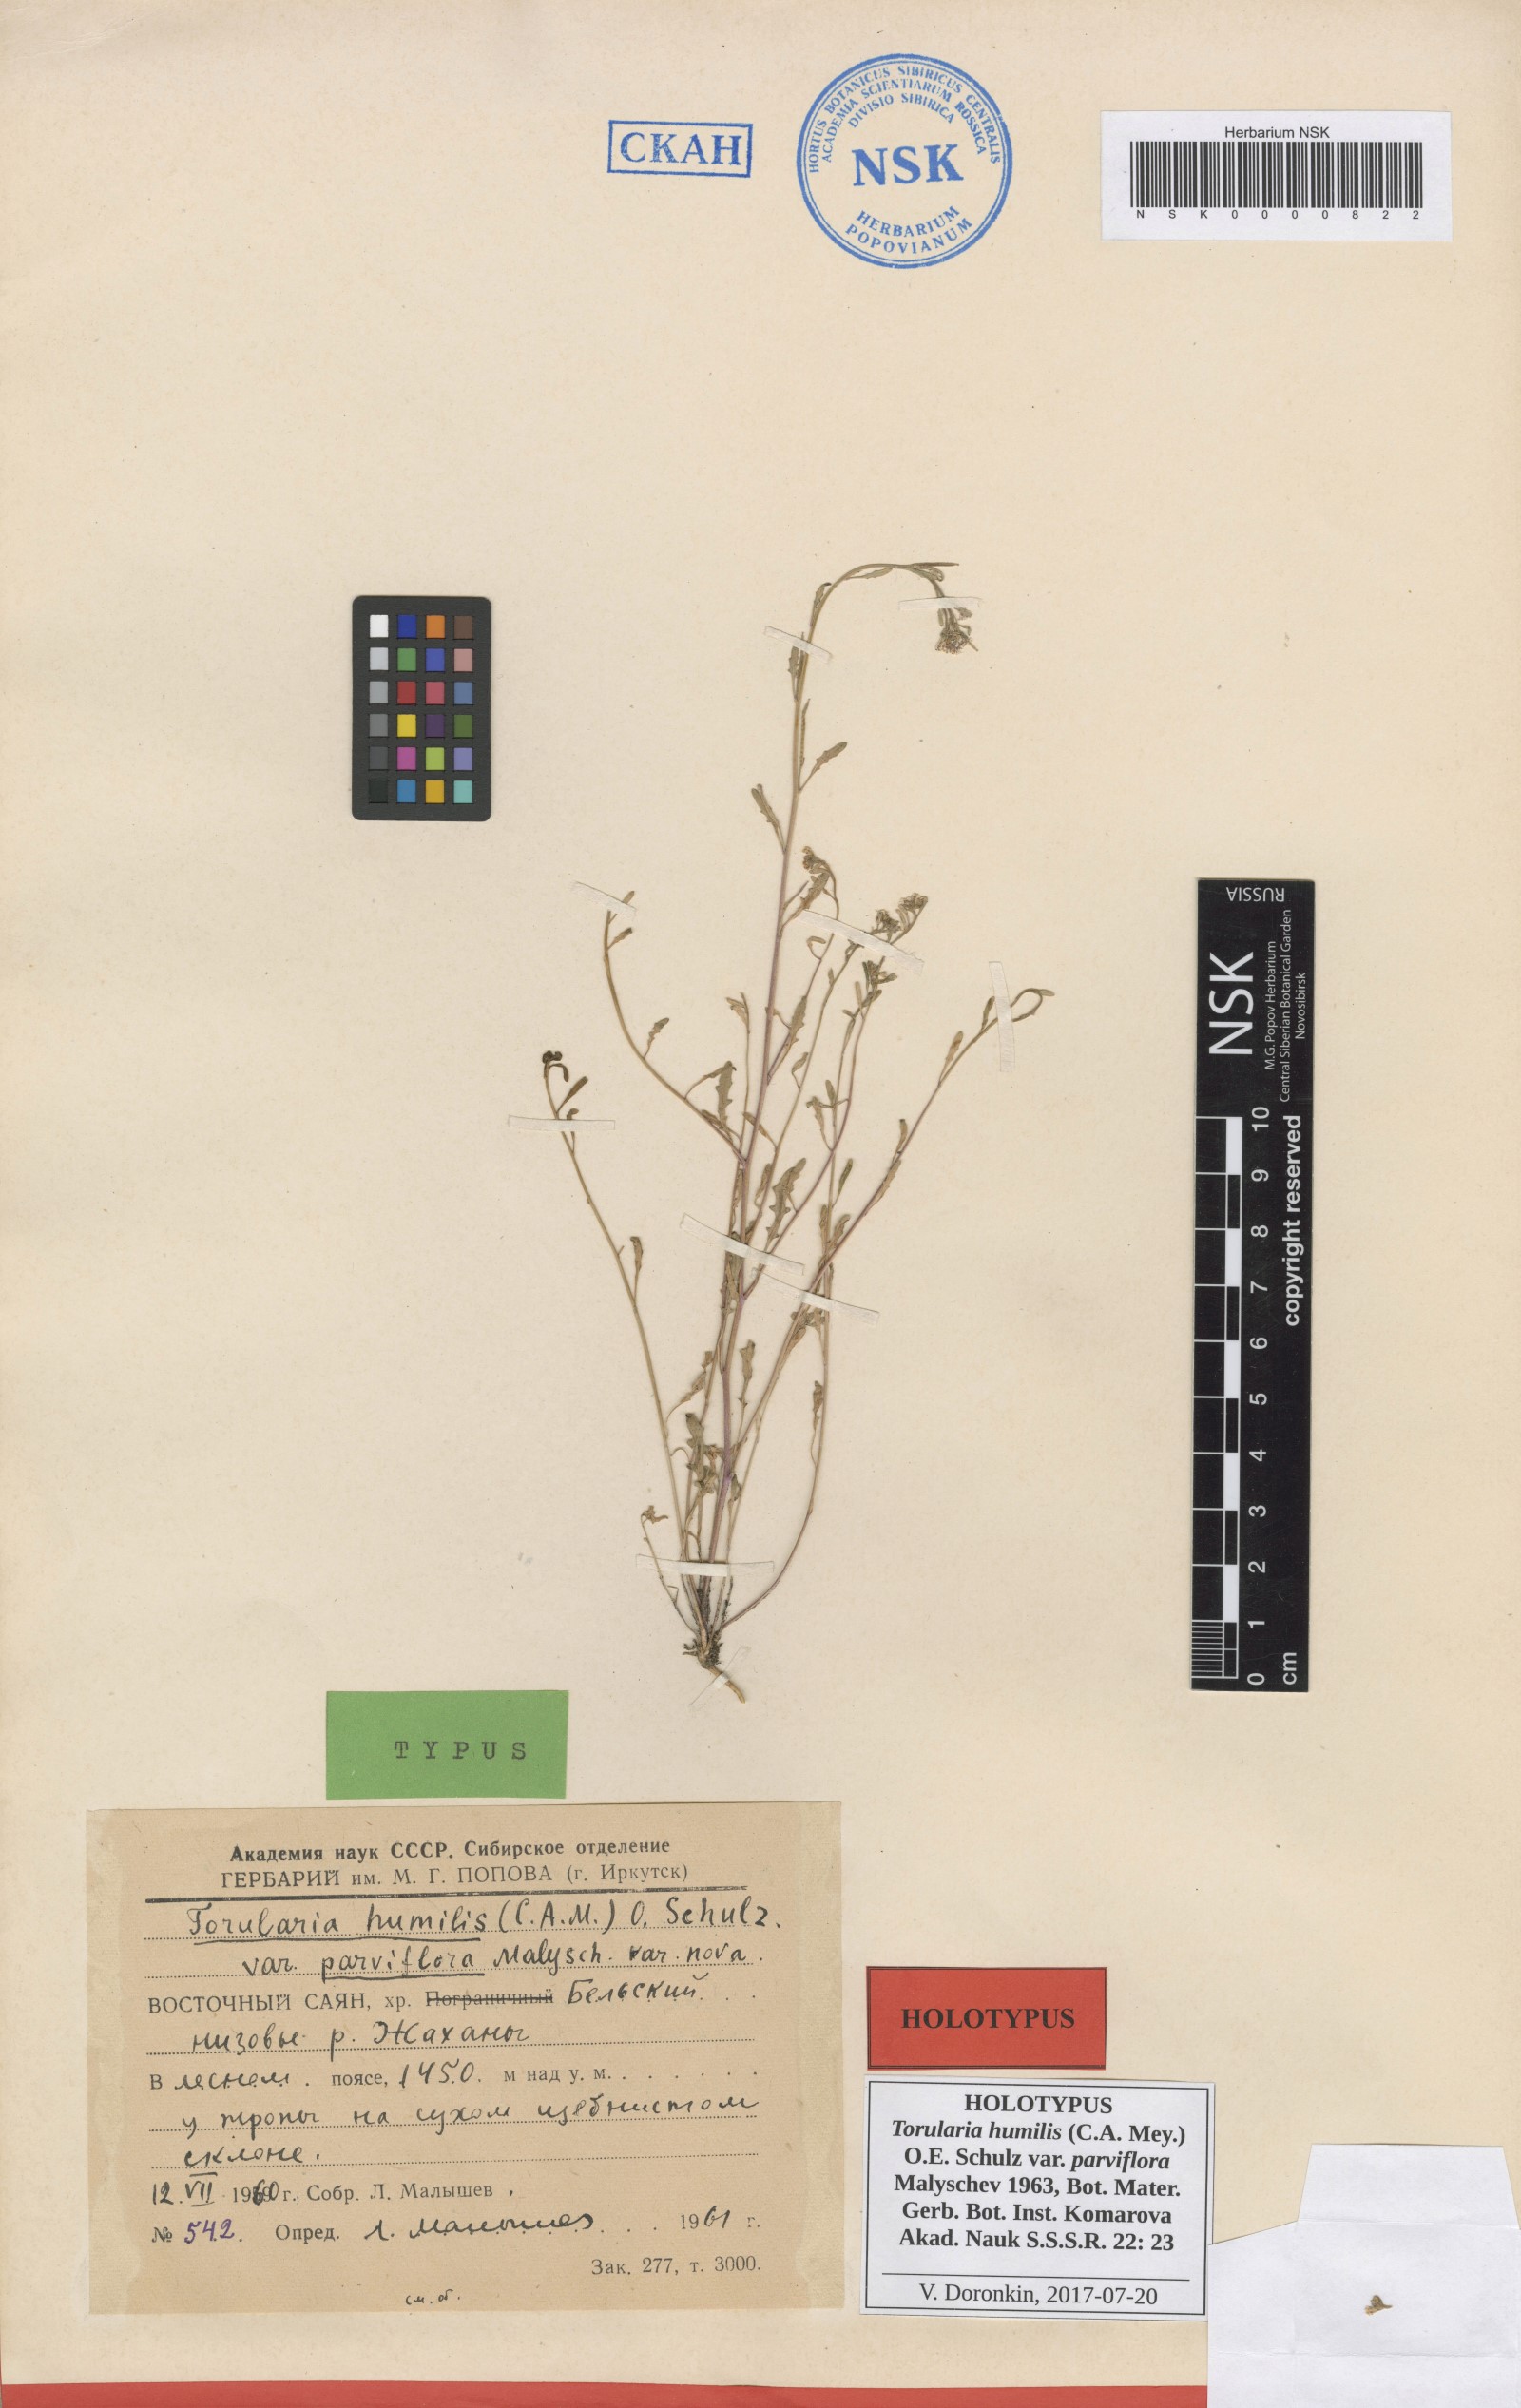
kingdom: Plantae
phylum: Tracheophyta
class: Magnoliopsida
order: Brassicales
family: Brassicaceae
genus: Braya
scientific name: Braya humilis
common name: Alpine northern rockcress
